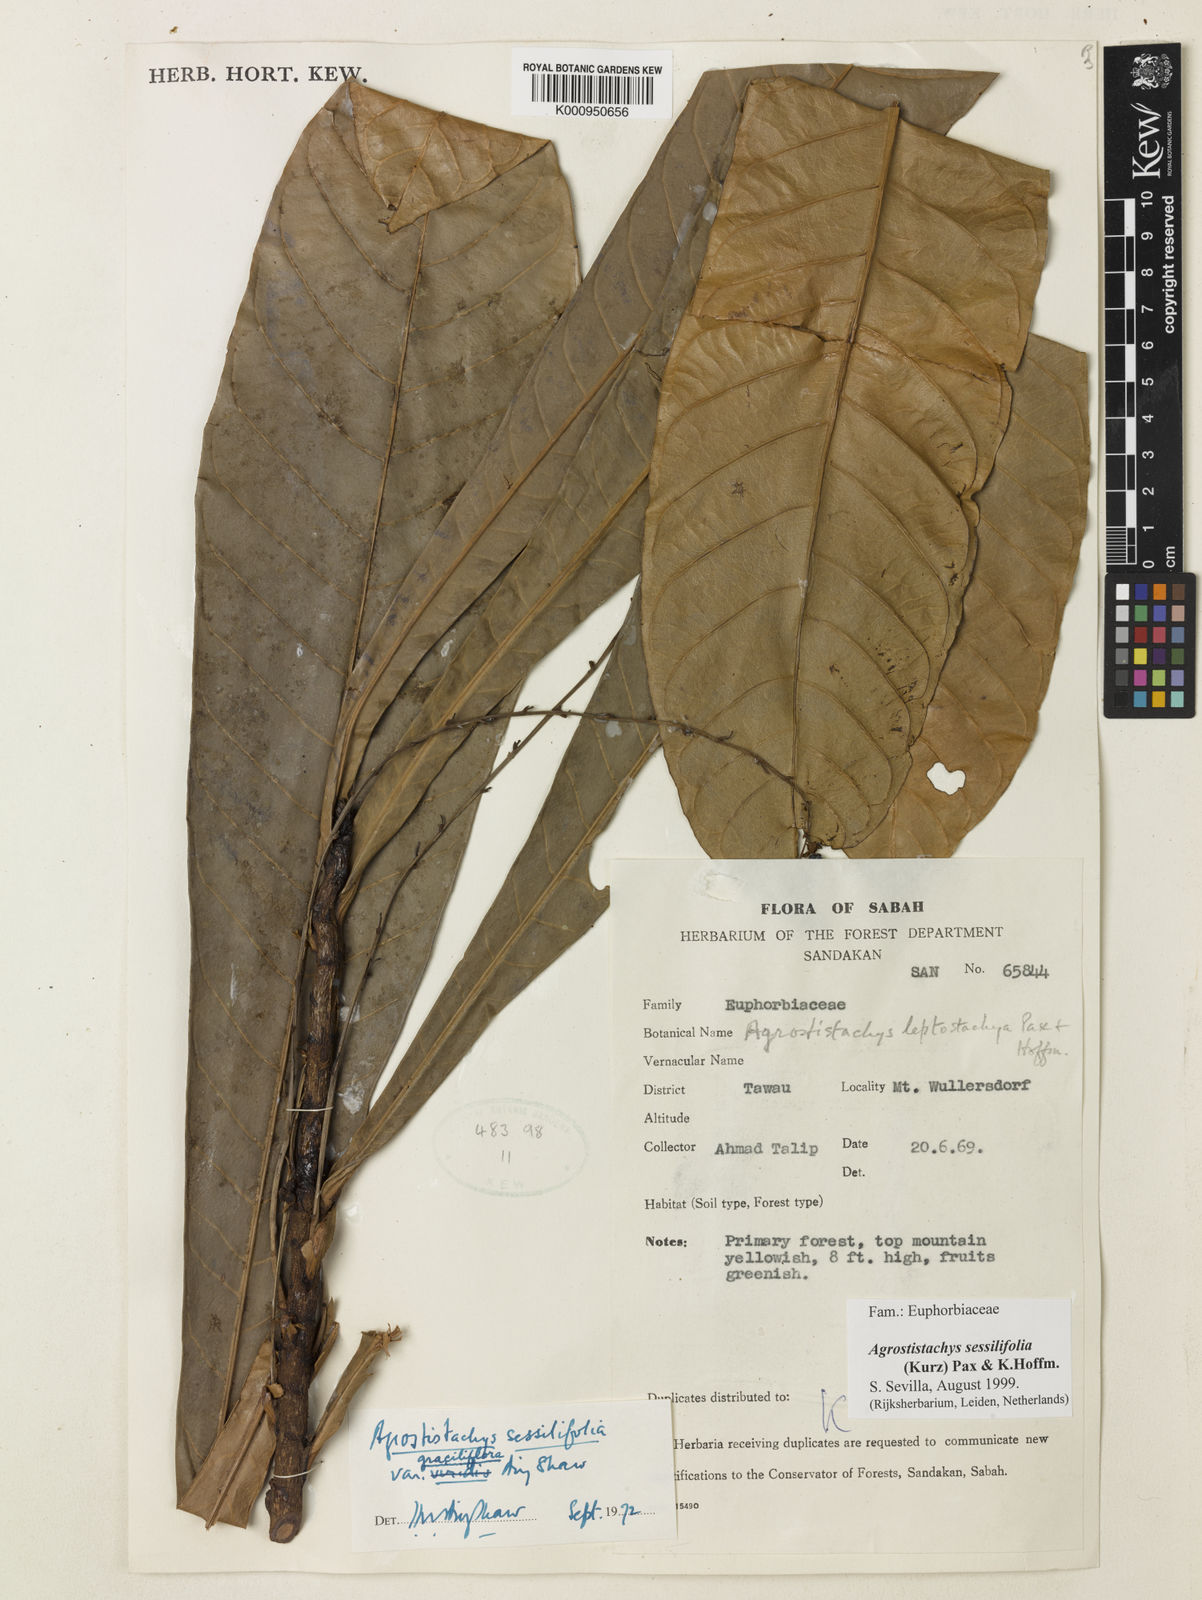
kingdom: Plantae
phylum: Tracheophyta
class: Magnoliopsida
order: Malpighiales
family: Euphorbiaceae
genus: Agrostistachys
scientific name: Agrostistachys sessilifolia
